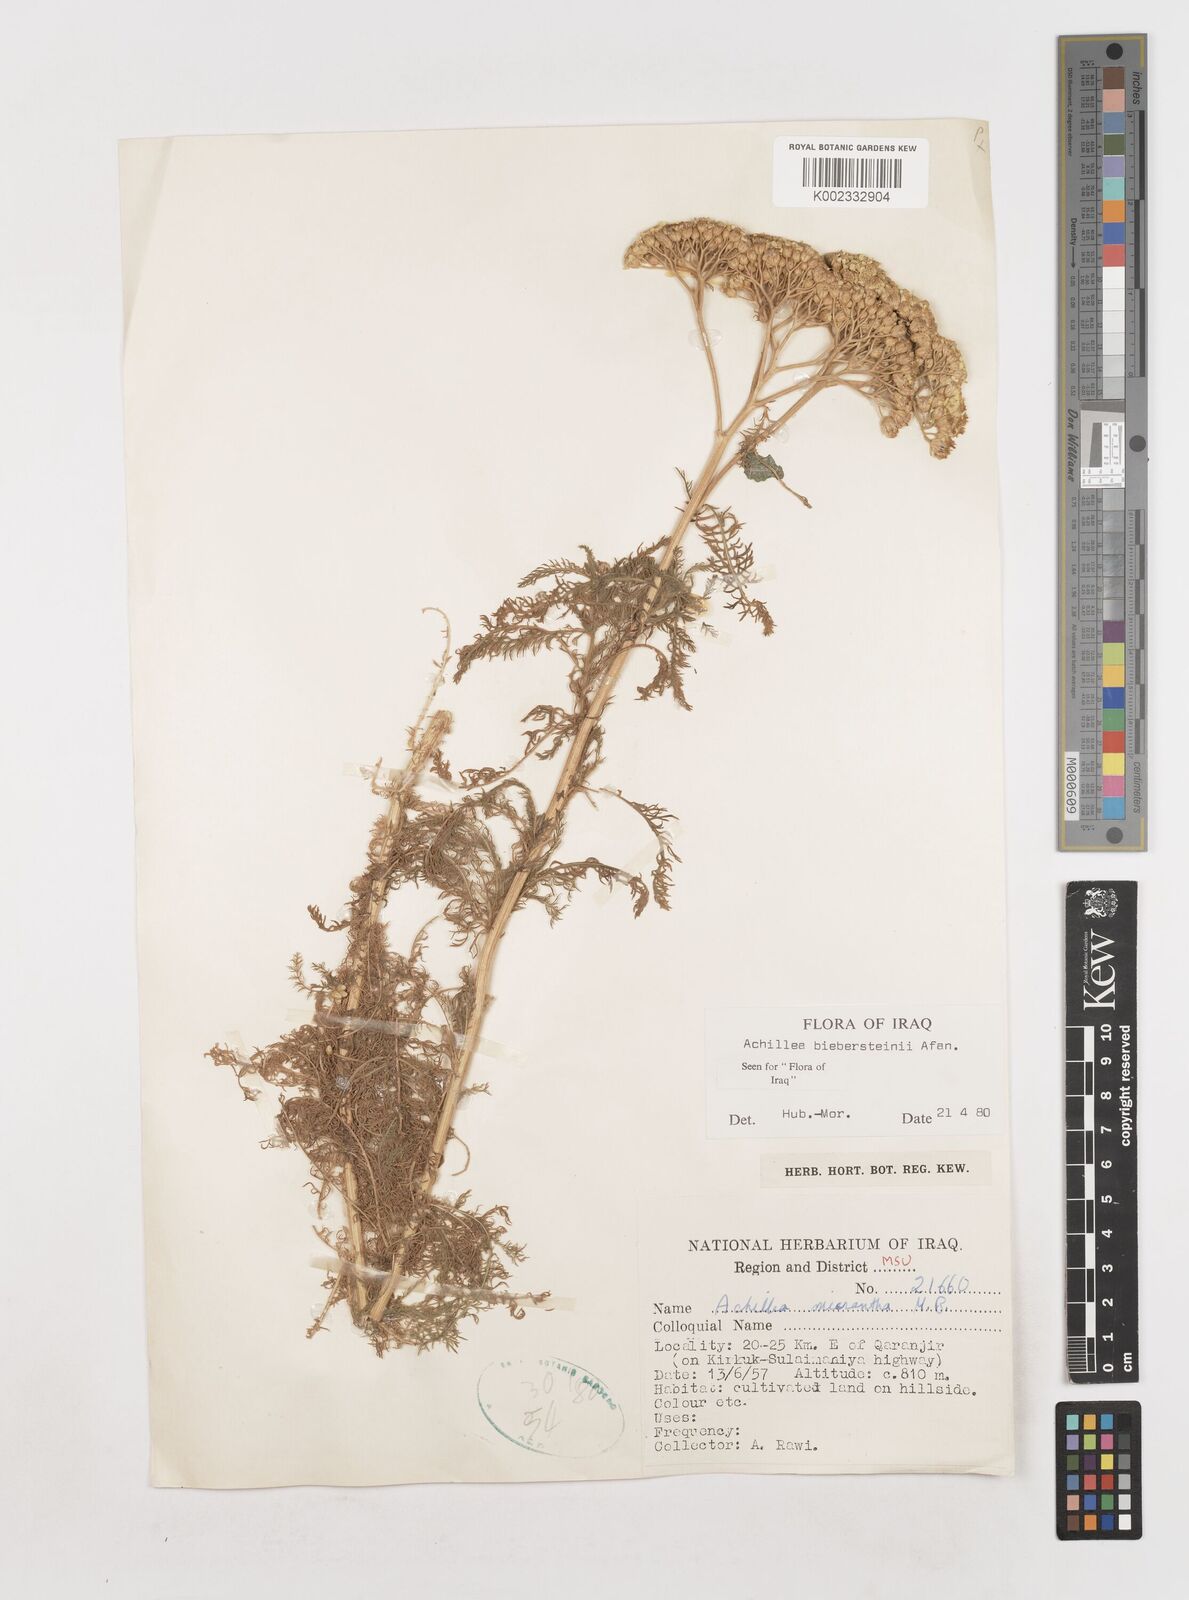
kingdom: Plantae
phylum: Tracheophyta
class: Magnoliopsida
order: Asterales
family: Asteraceae
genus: Achillea
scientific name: Achillea arabica
